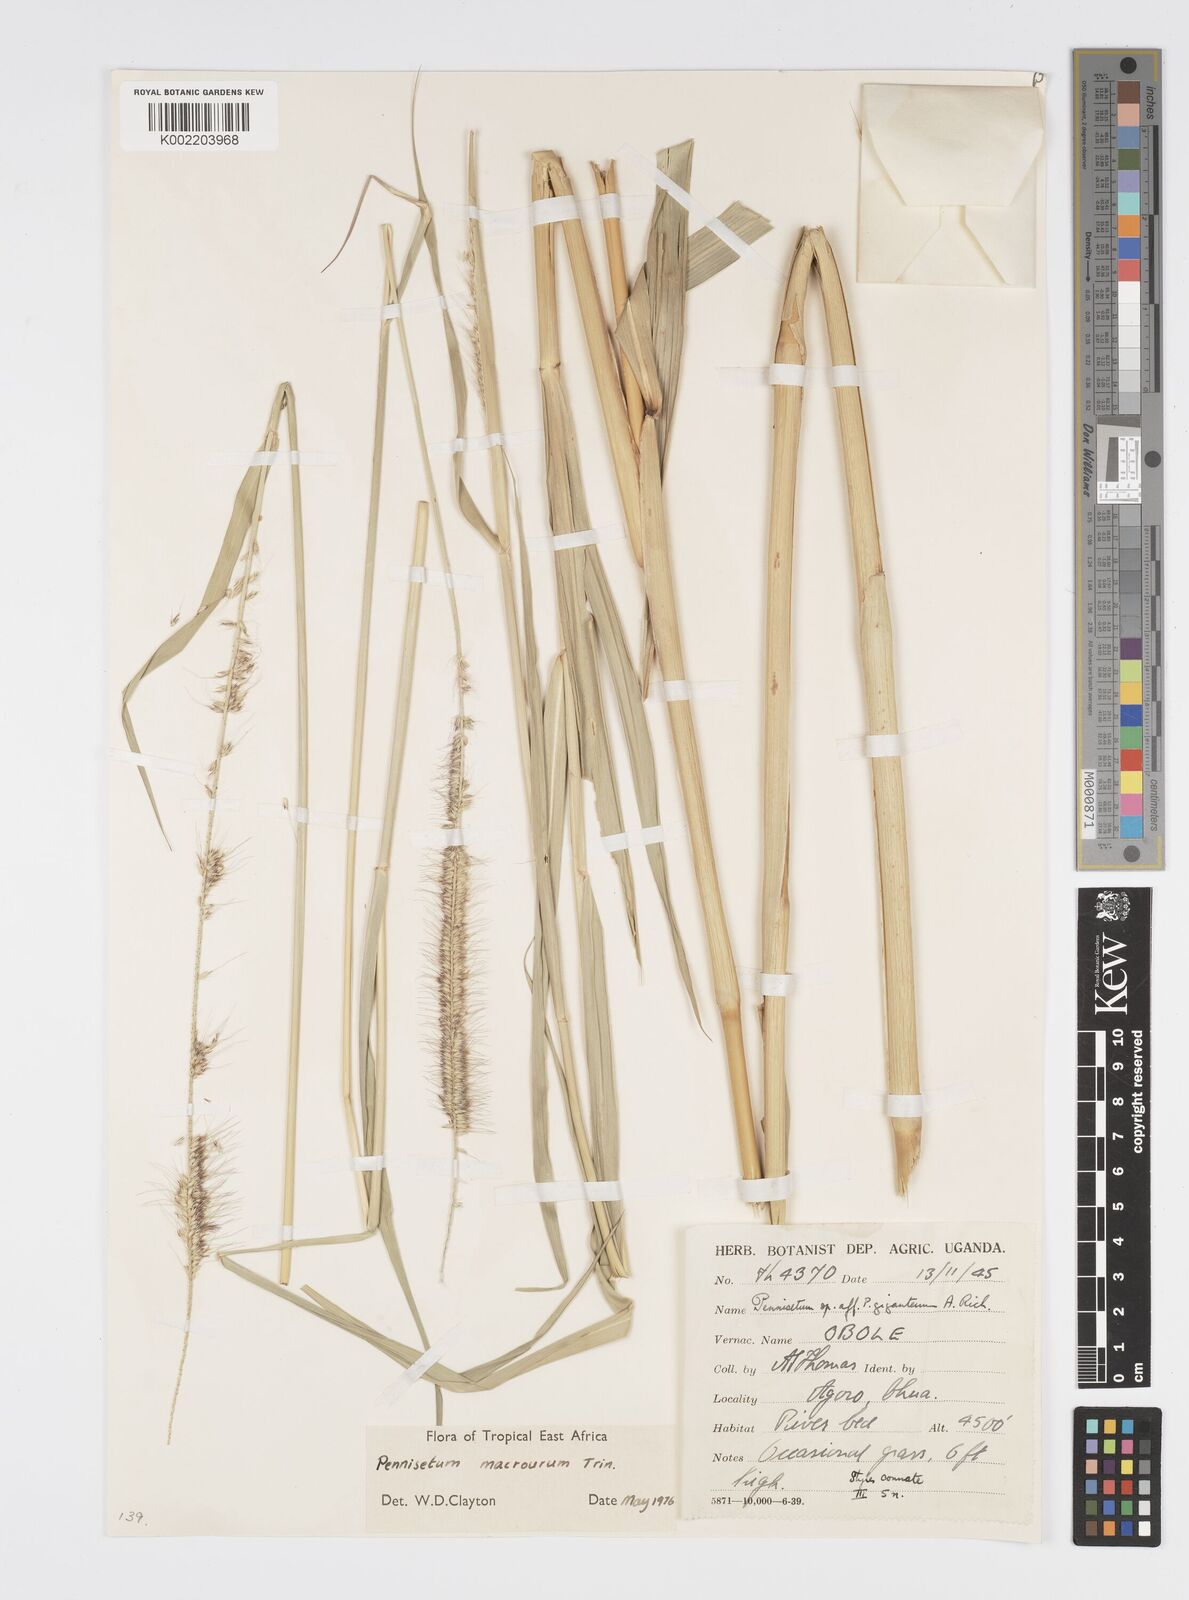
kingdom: Plantae
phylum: Tracheophyta
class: Liliopsida
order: Poales
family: Poaceae
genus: Cenchrus
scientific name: Cenchrus caudatus
